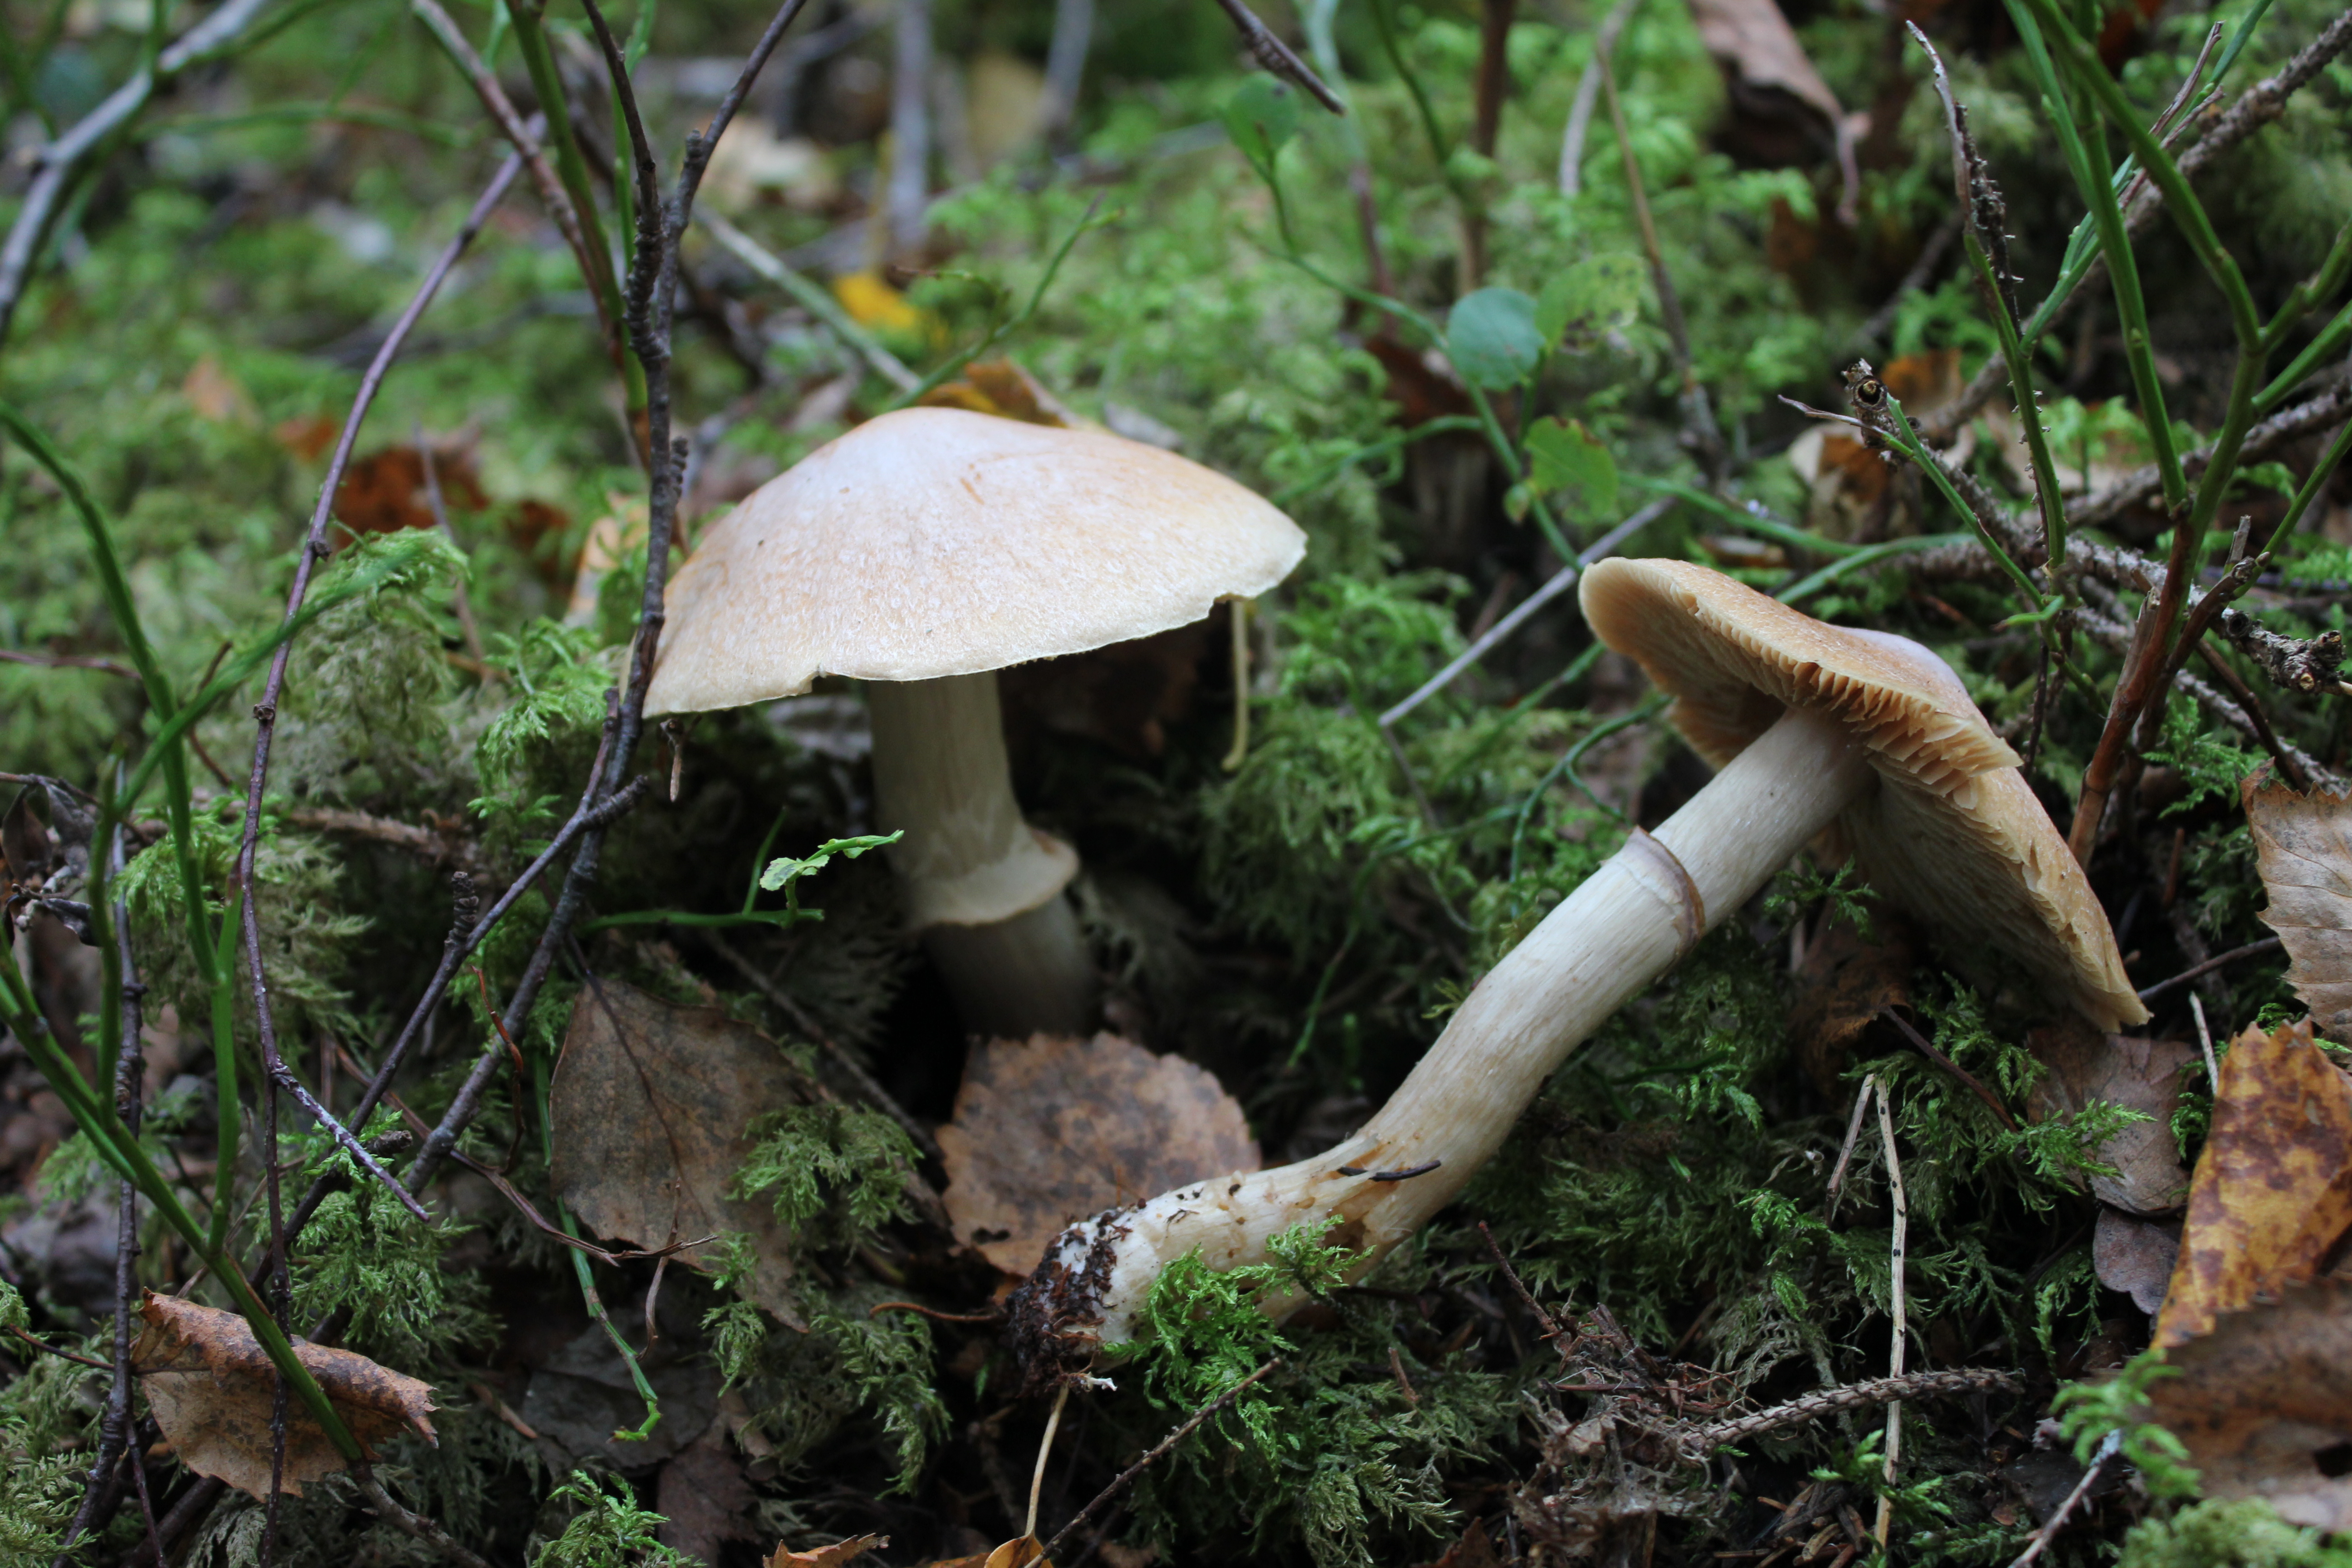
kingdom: Fungi
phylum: Basidiomycota
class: Agaricomycetes
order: Agaricales
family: Cortinariaceae
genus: Cortinarius
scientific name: Cortinarius caperatus
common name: The gypsy
